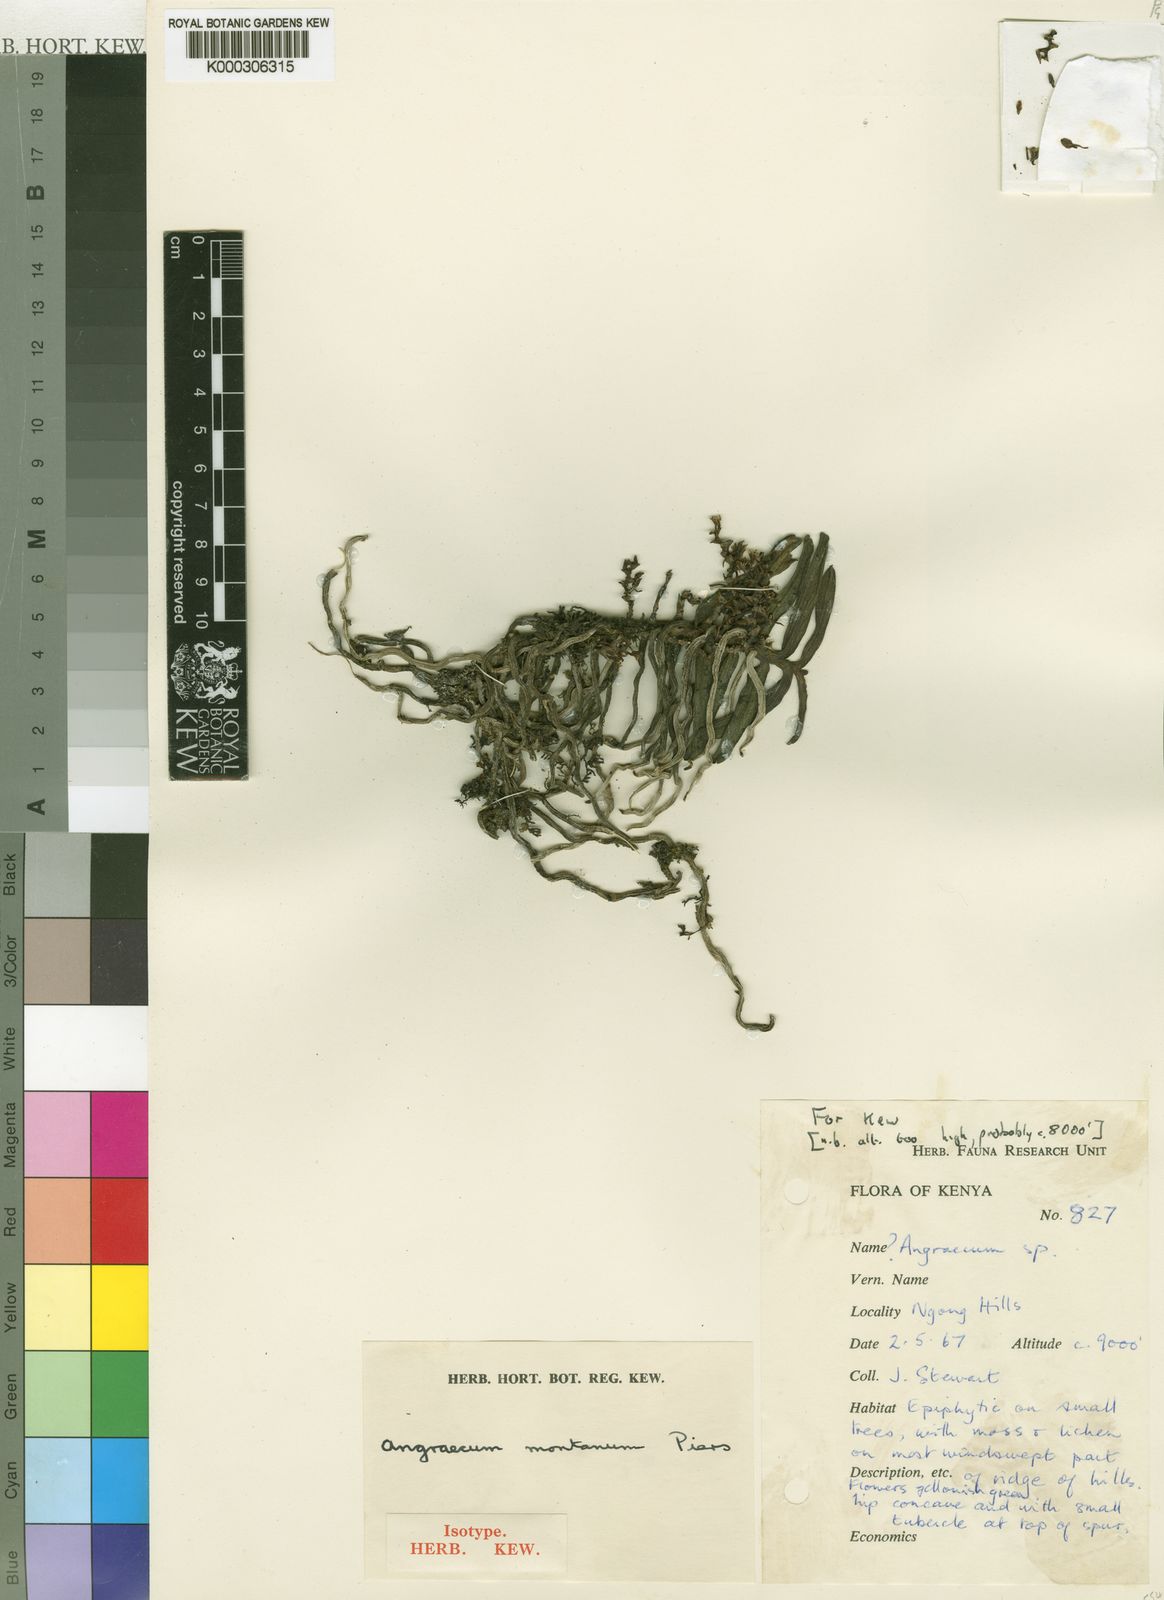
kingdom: Plantae
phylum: Tracheophyta
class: Liliopsida
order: Asparagales
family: Orchidaceae
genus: Rhipidoglossum
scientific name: Rhipidoglossum montanum
